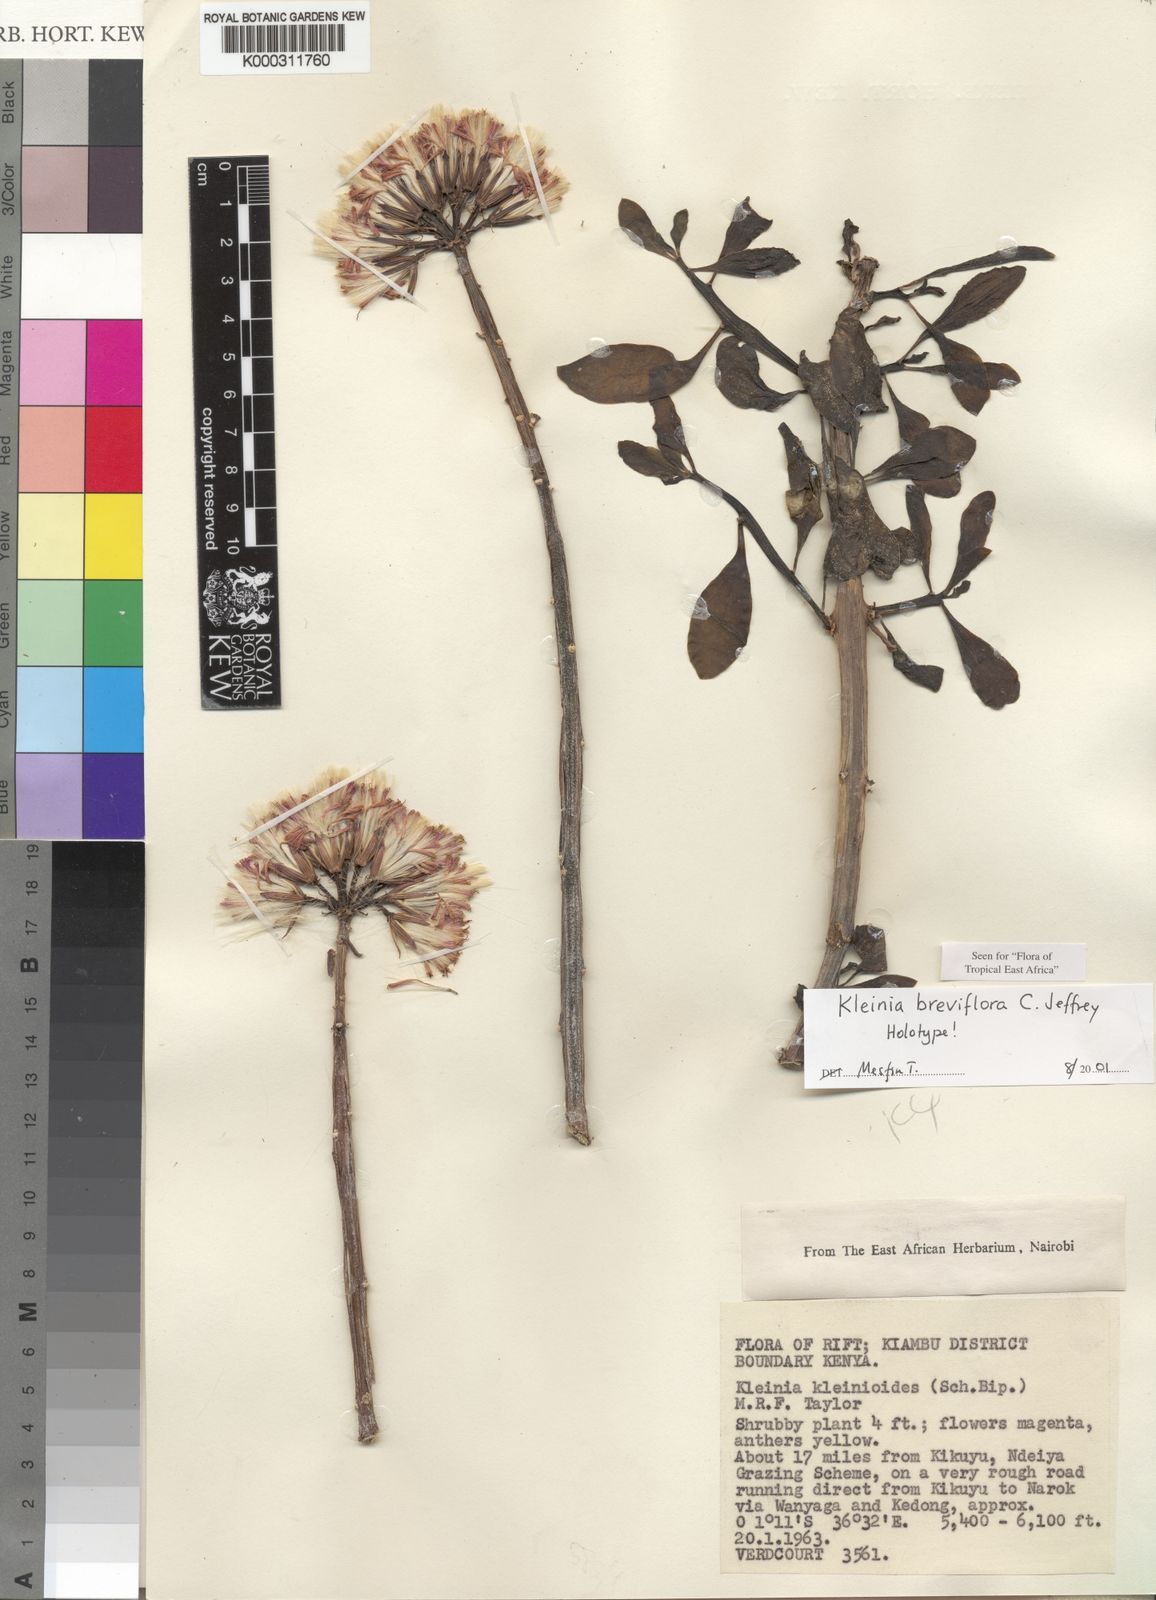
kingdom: Plantae
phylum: Tracheophyta
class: Magnoliopsida
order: Asterales
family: Asteraceae
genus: Kleinia
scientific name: Kleinia polycotoma
